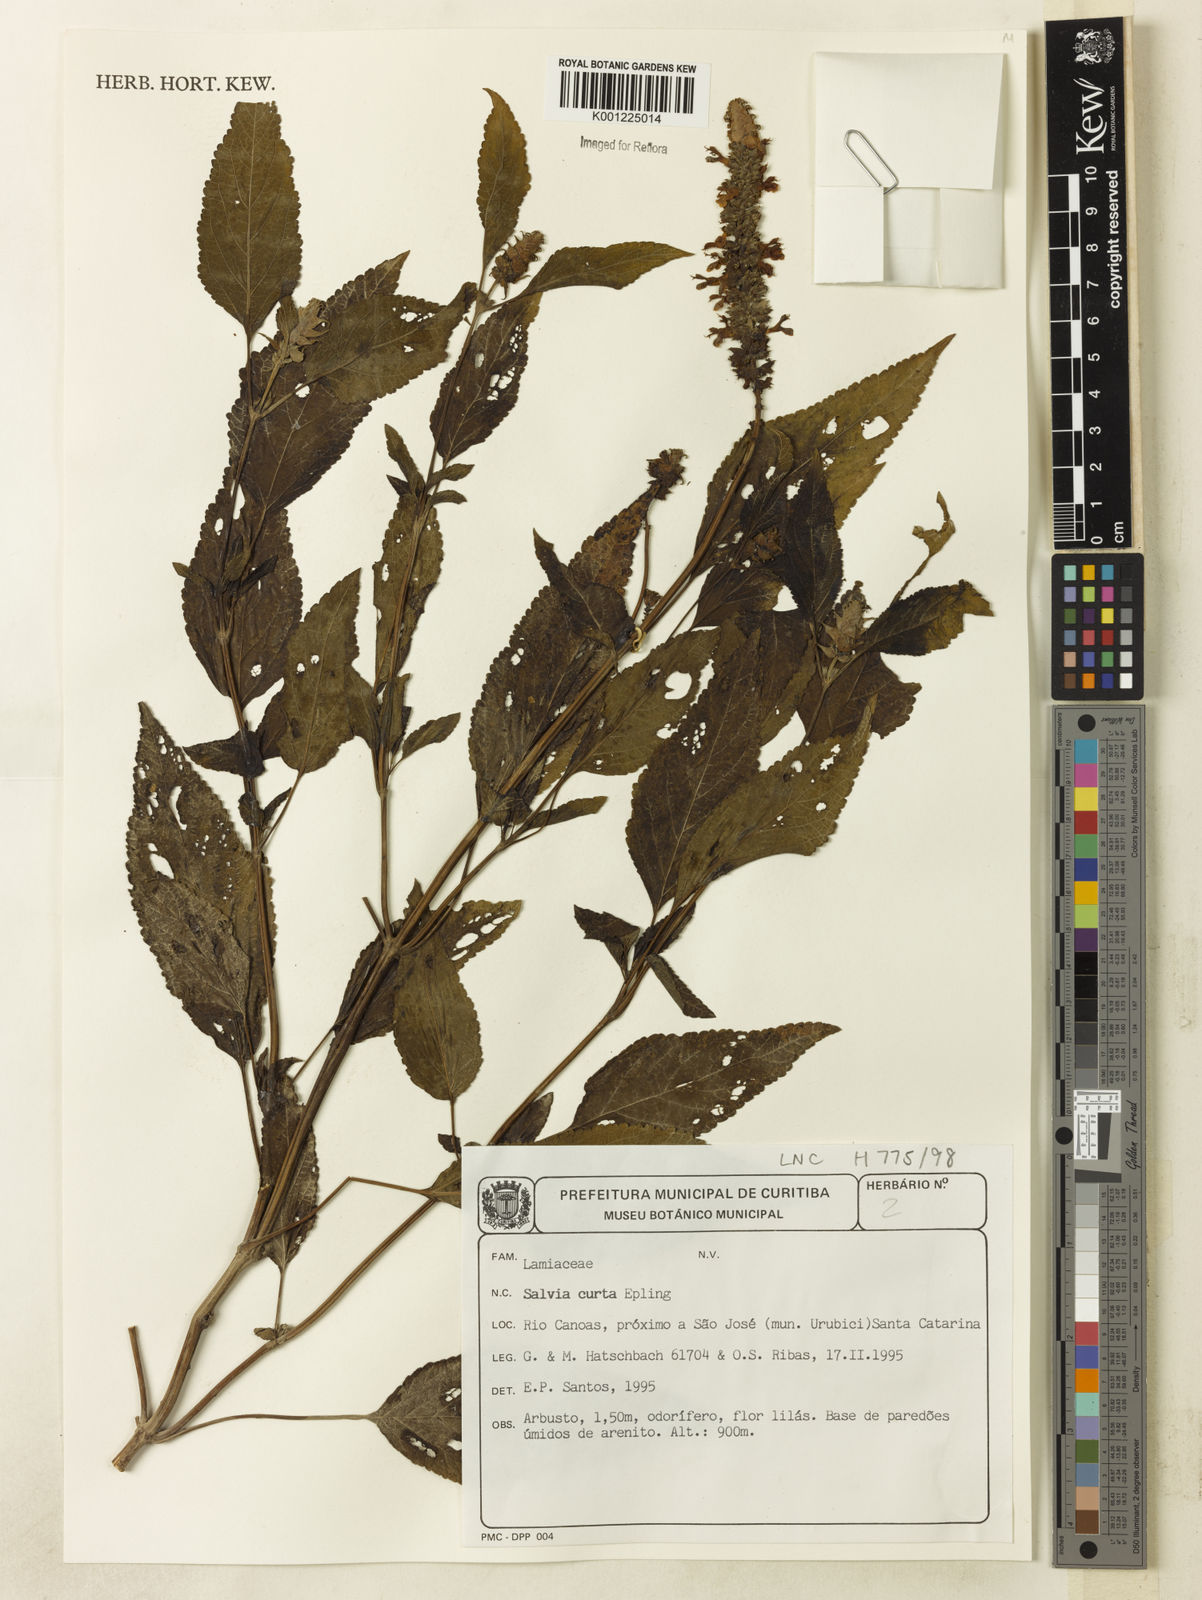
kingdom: Plantae
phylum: Tracheophyta
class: Magnoliopsida
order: Lamiales
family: Lamiaceae
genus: Salvia
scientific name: Salvia curta
